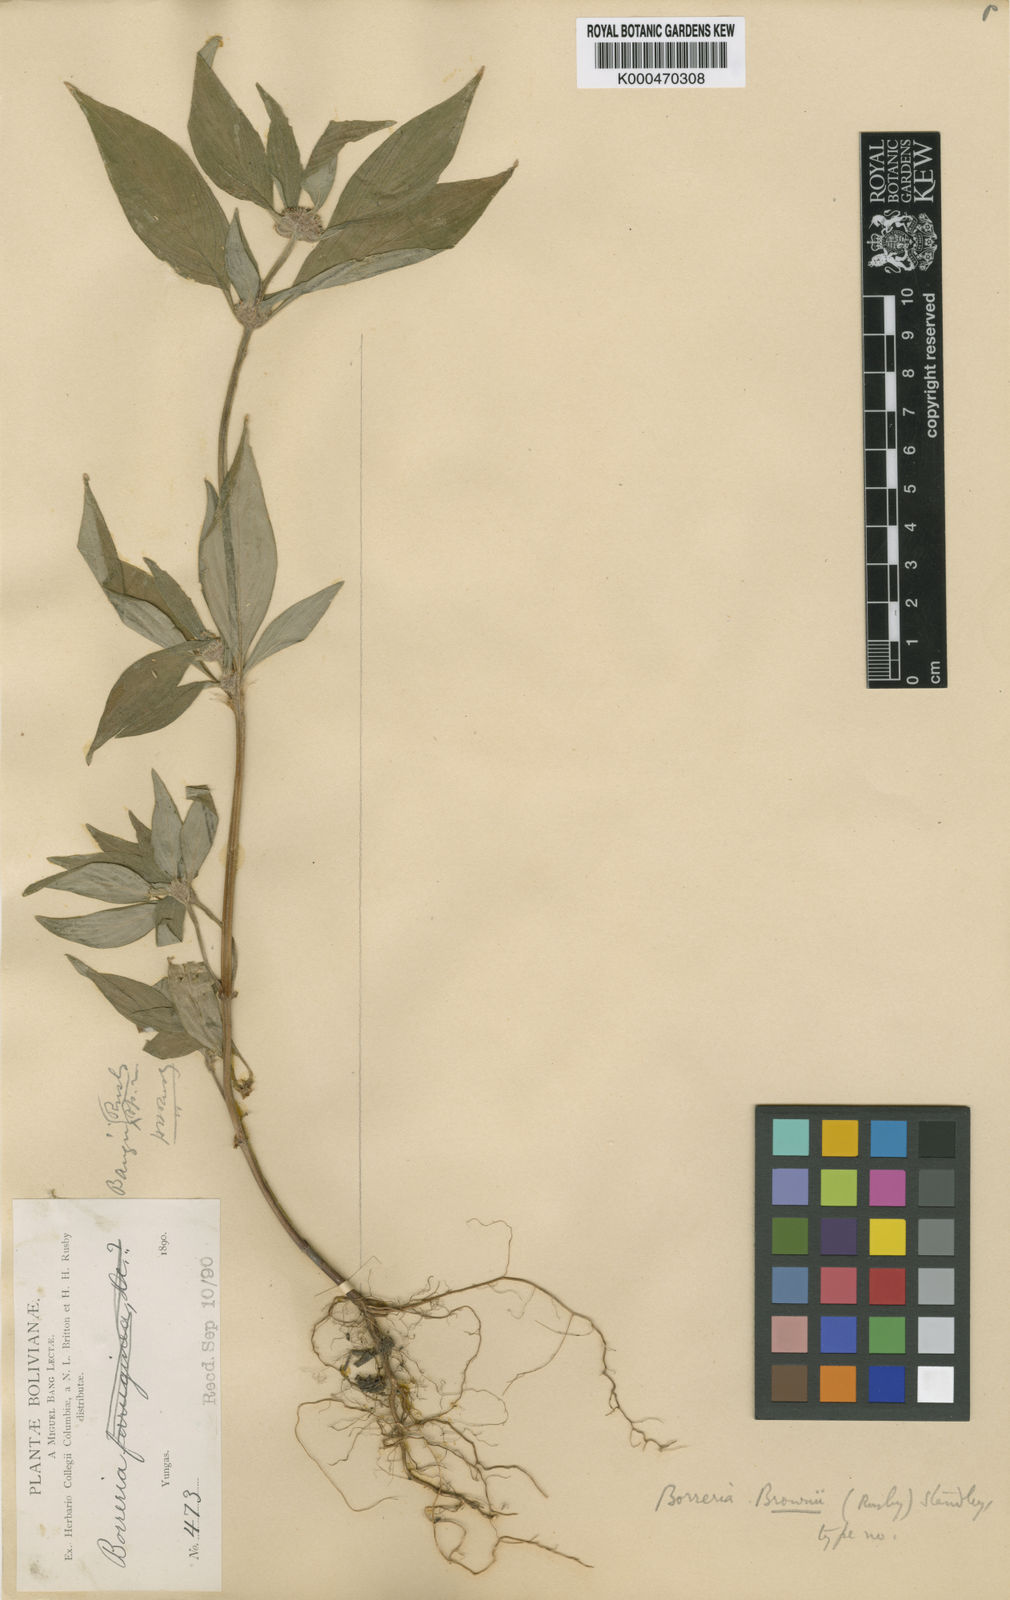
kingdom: Plantae
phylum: Tracheophyta
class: Magnoliopsida
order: Gentianales
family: Rubiaceae
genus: Spermacoce
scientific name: Spermacoce brownii
